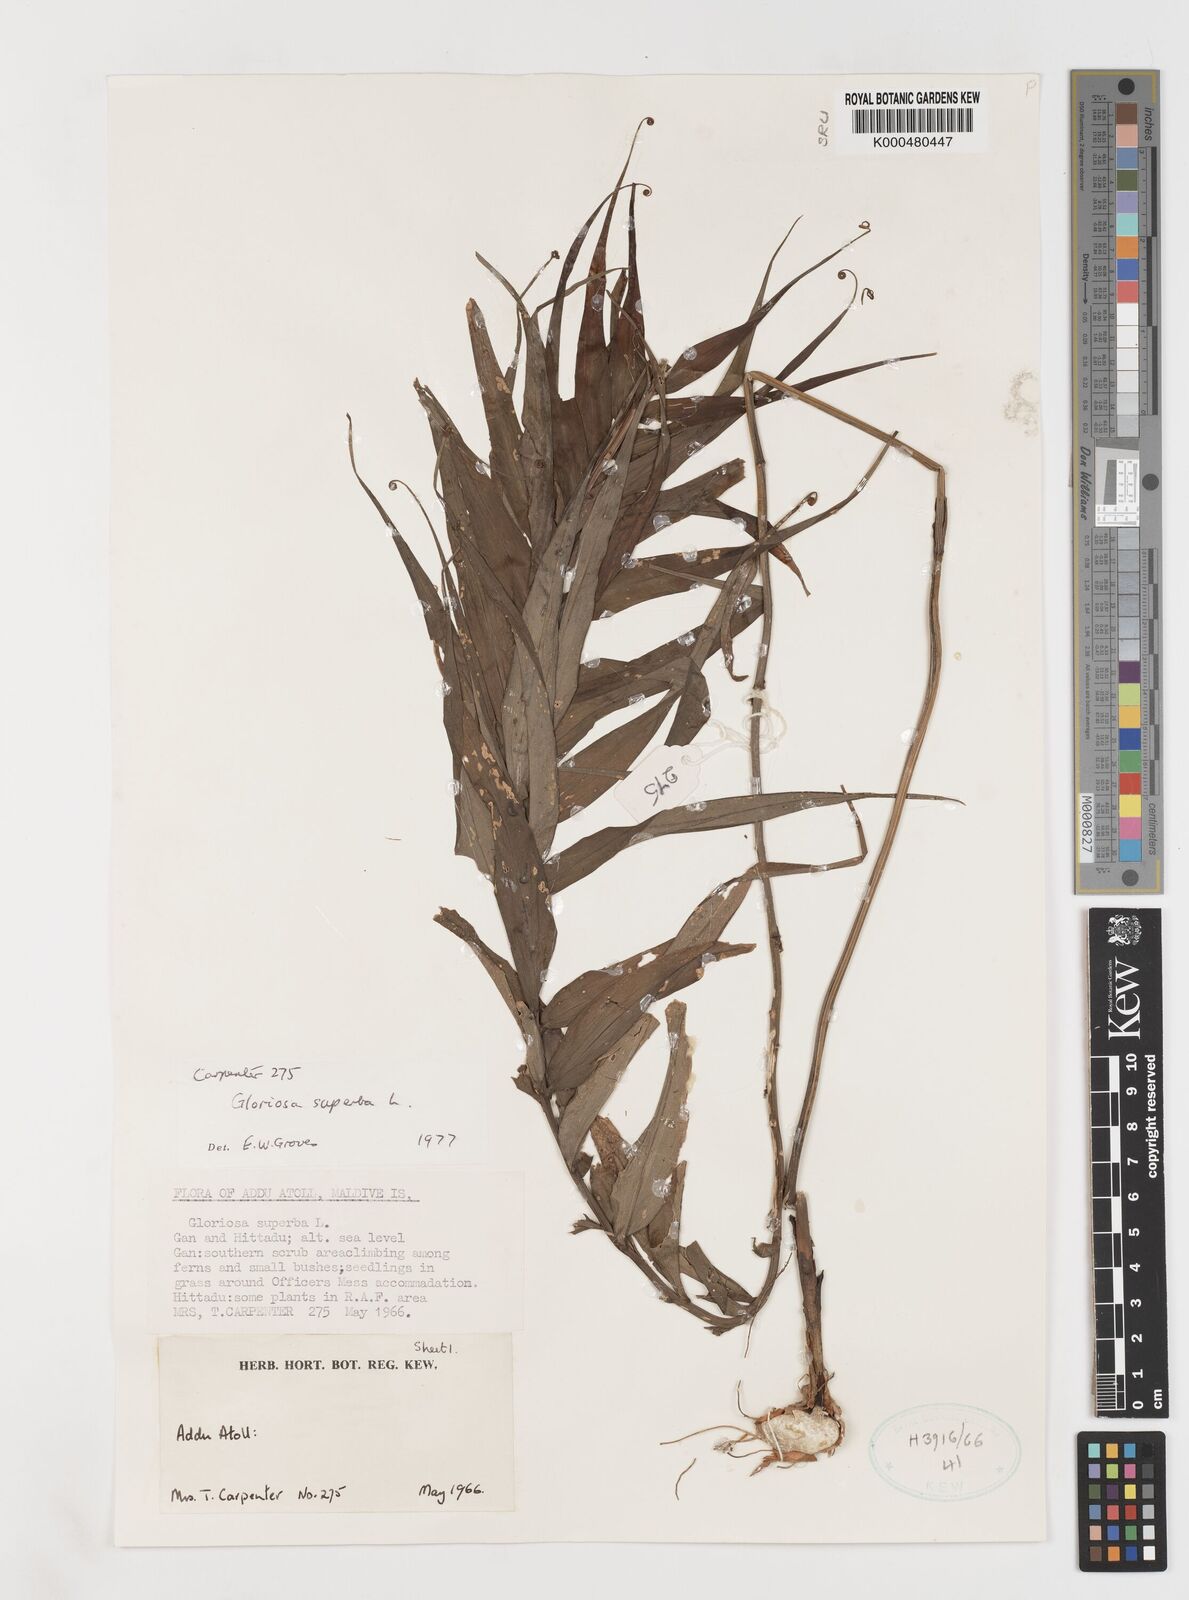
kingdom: Plantae
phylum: Tracheophyta
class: Liliopsida
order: Liliales
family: Colchicaceae
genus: Gloriosa
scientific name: Gloriosa superba
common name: Flame lily
